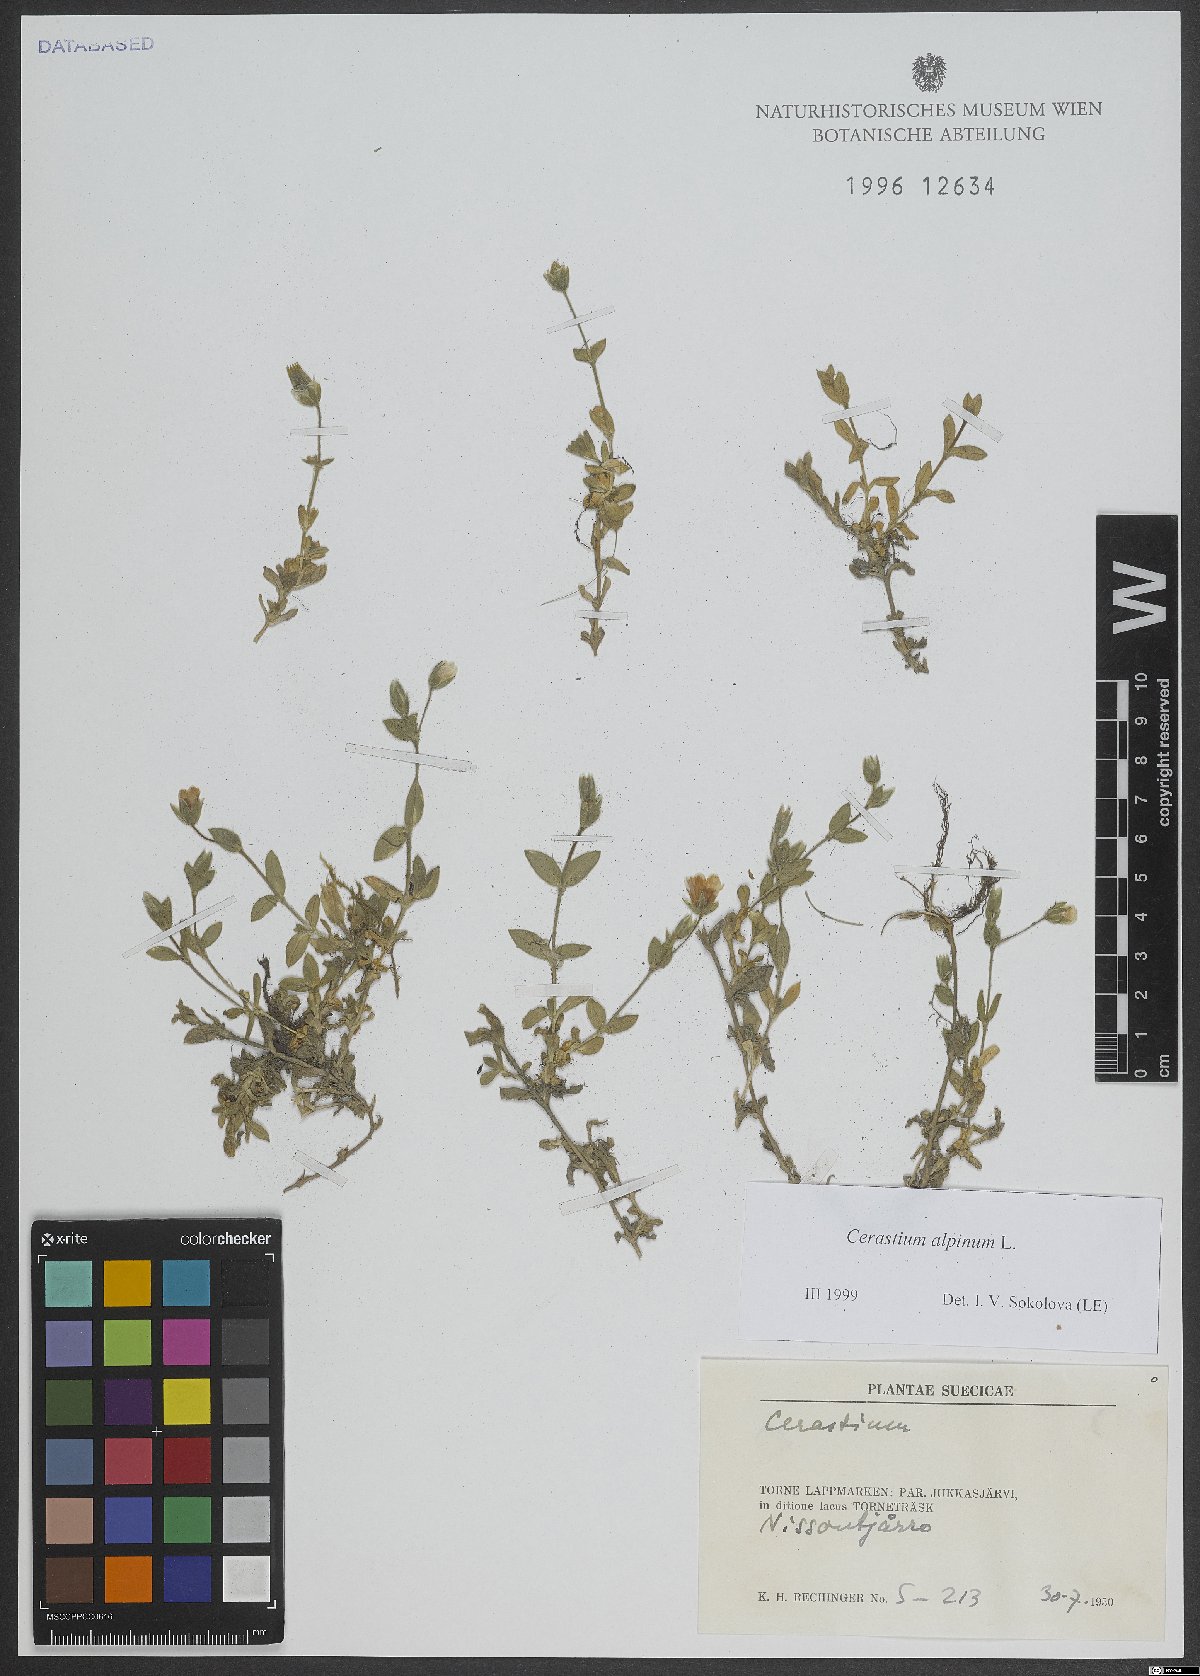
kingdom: Plantae
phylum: Tracheophyta
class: Magnoliopsida
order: Caryophyllales
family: Caryophyllaceae
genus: Cerastium
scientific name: Cerastium alpinum
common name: Alpine mouse-ear
